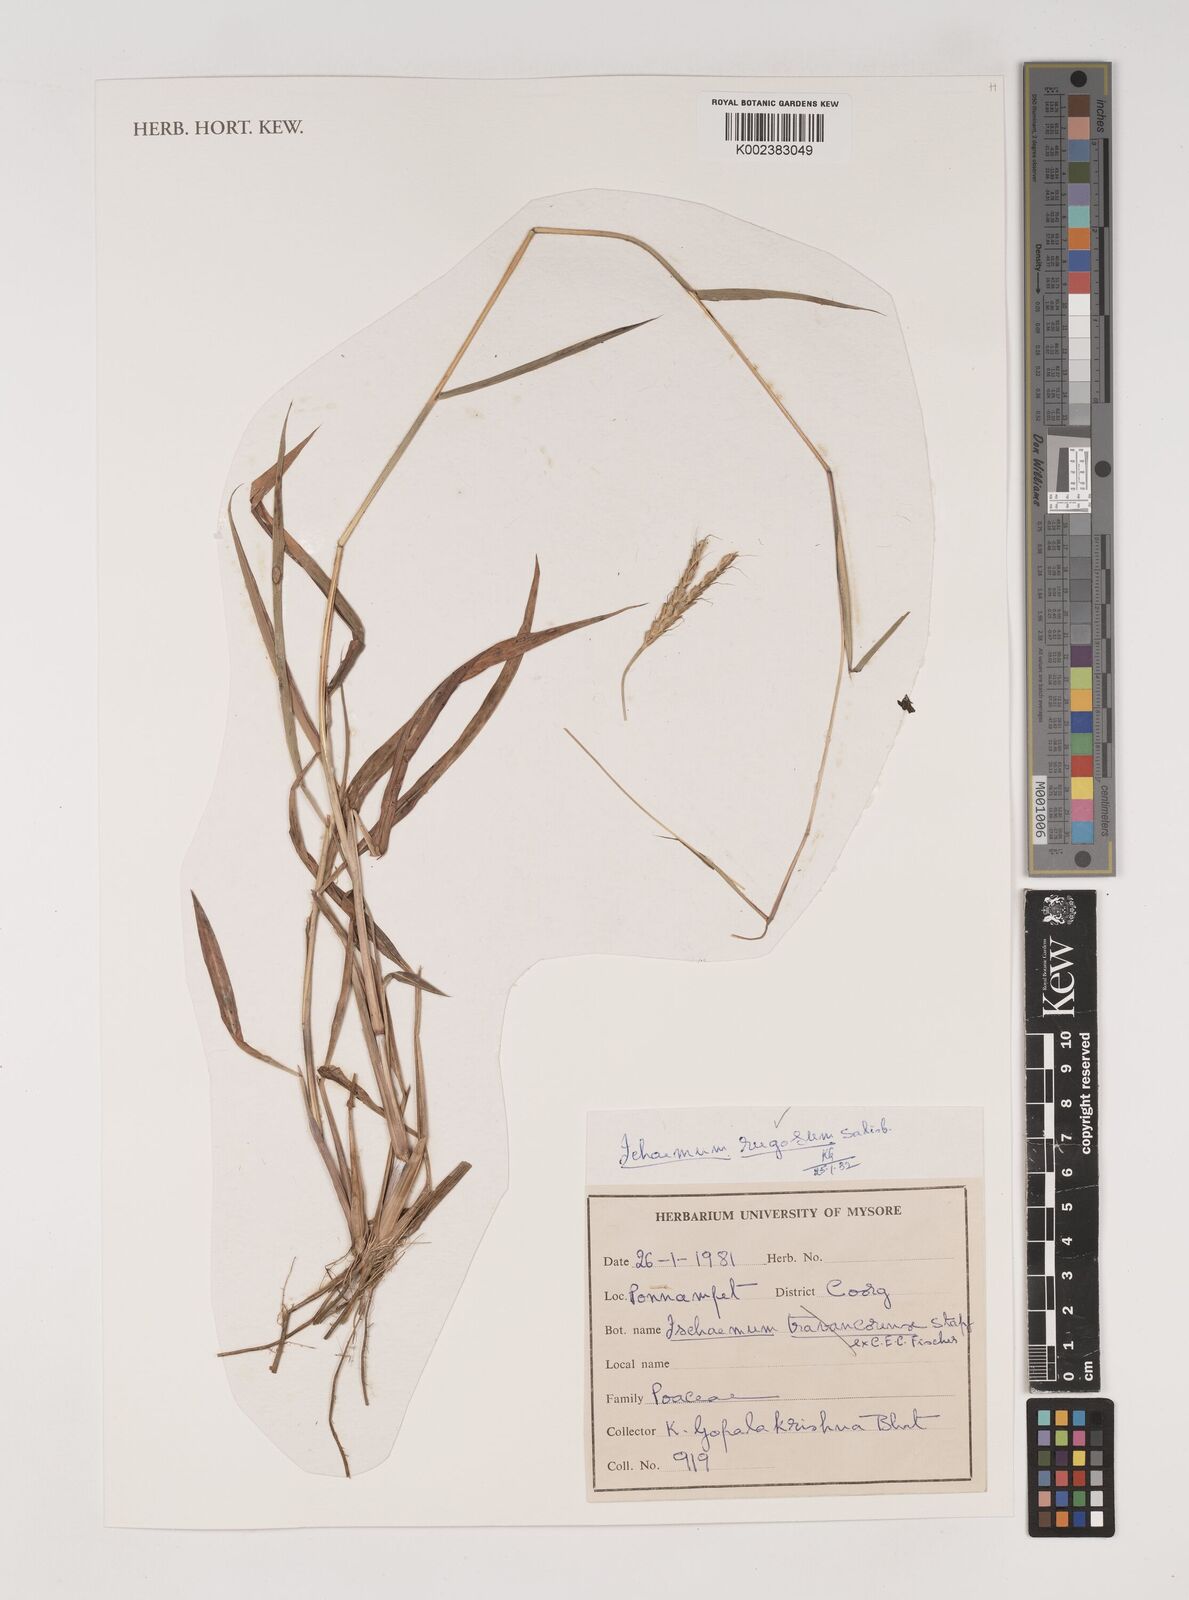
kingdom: Plantae
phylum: Tracheophyta
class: Liliopsida
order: Poales
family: Poaceae
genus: Ischaemum
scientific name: Ischaemum rugosum
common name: Saramatta grass
